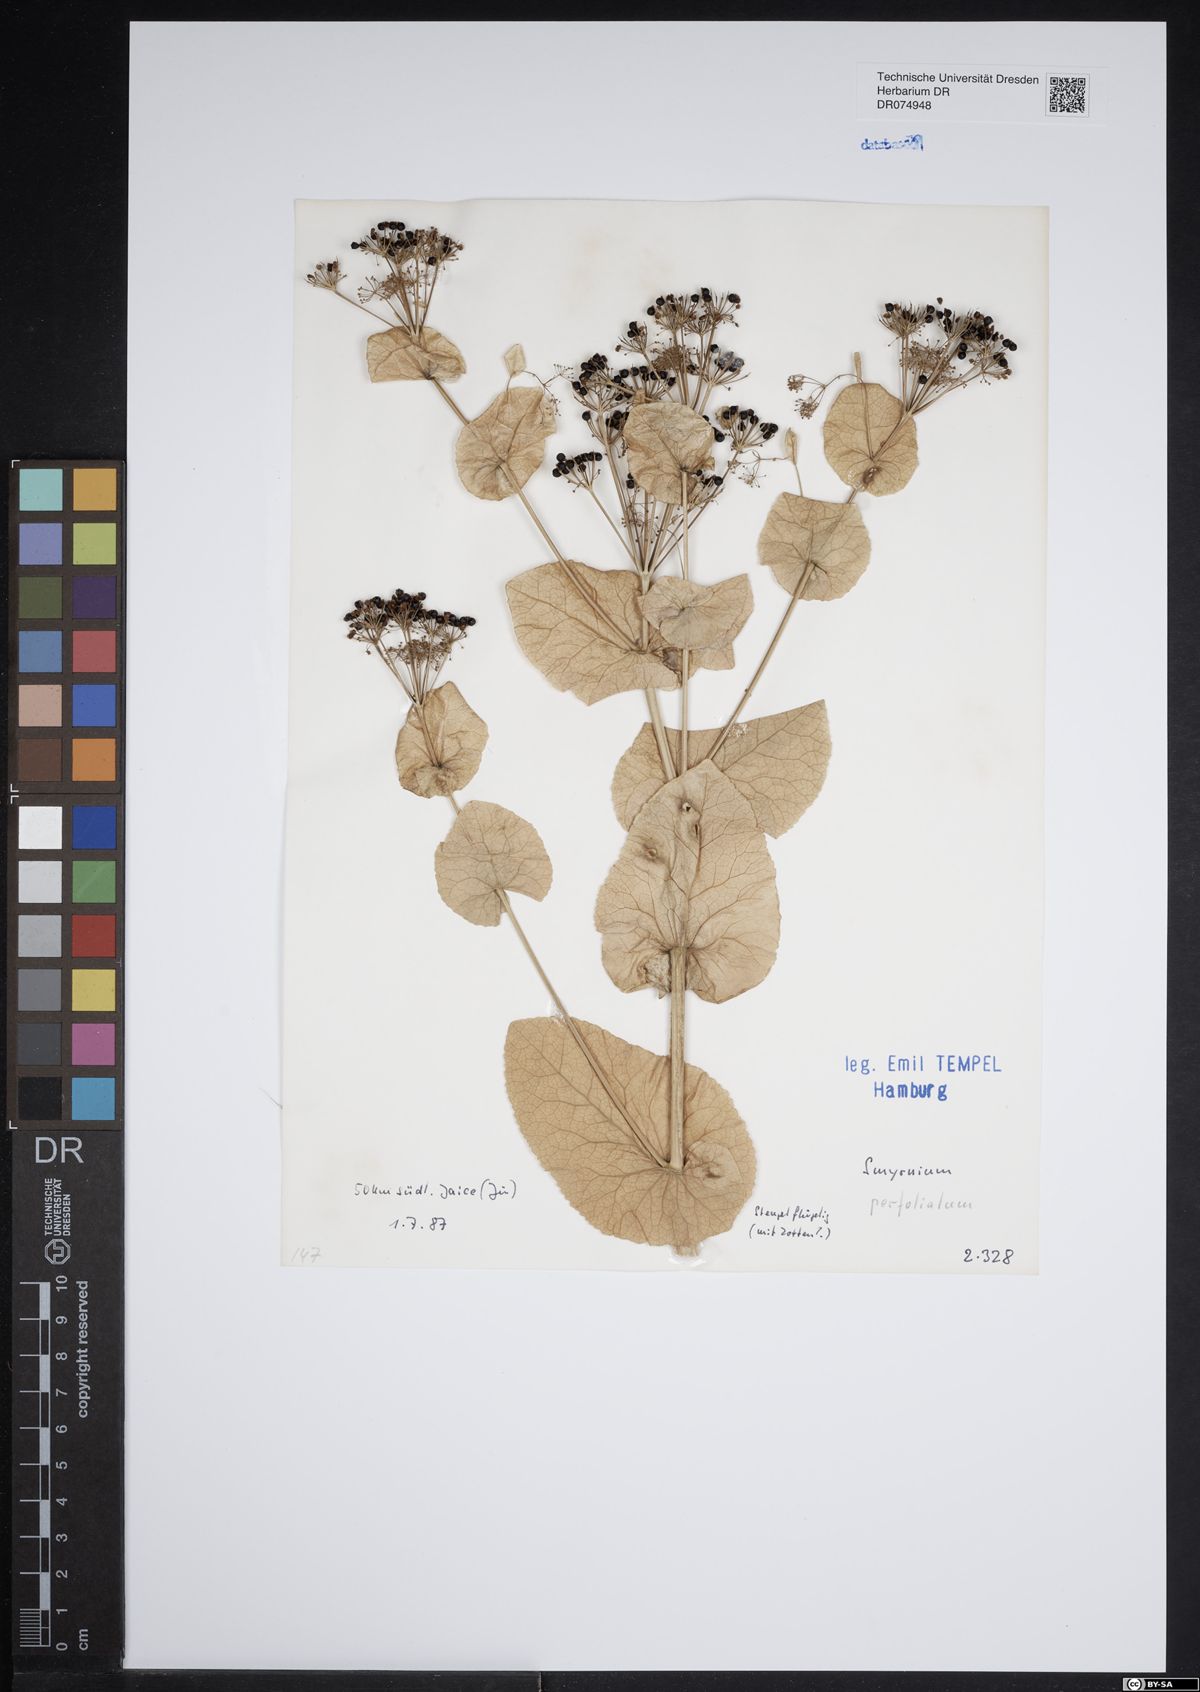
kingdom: Plantae
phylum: Tracheophyta
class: Magnoliopsida
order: Apiales
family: Apiaceae
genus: Smyrnium
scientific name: Smyrnium perfoliatum
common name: Perfoliate alexanders
